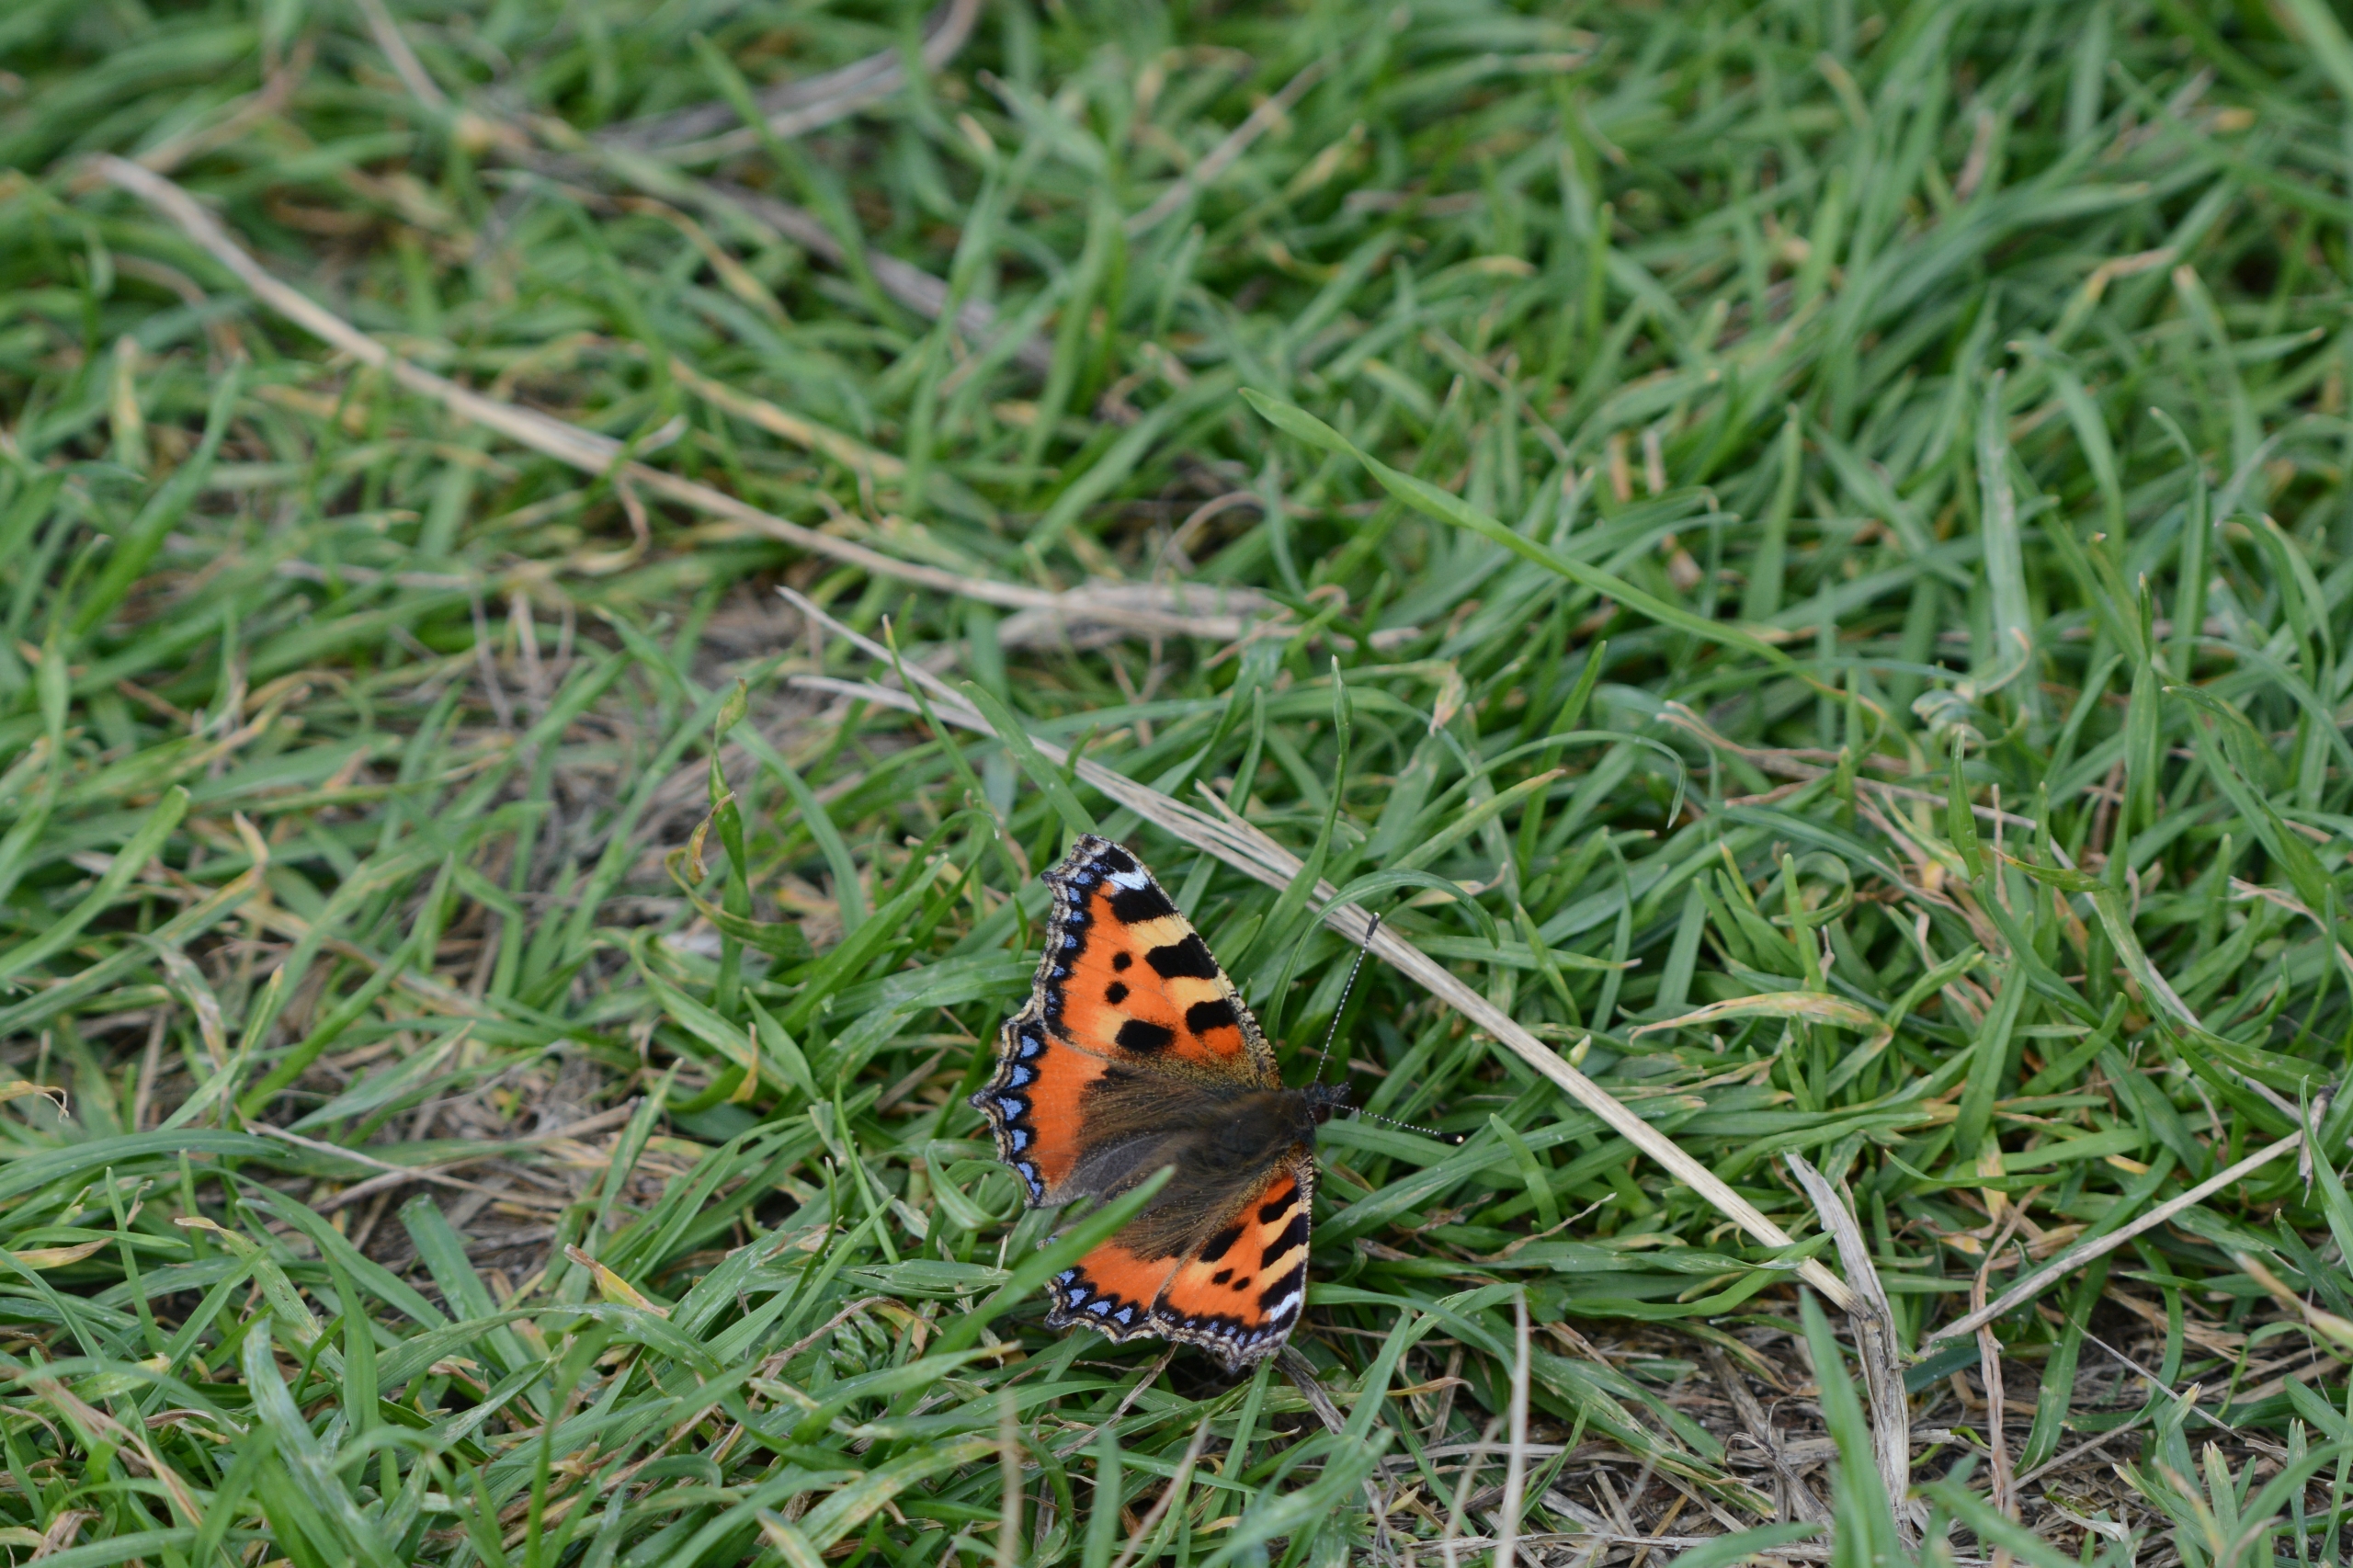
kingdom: Animalia
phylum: Arthropoda
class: Insecta
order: Lepidoptera
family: Nymphalidae
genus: Aglais
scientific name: Aglais urticae
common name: Nældens takvinge
